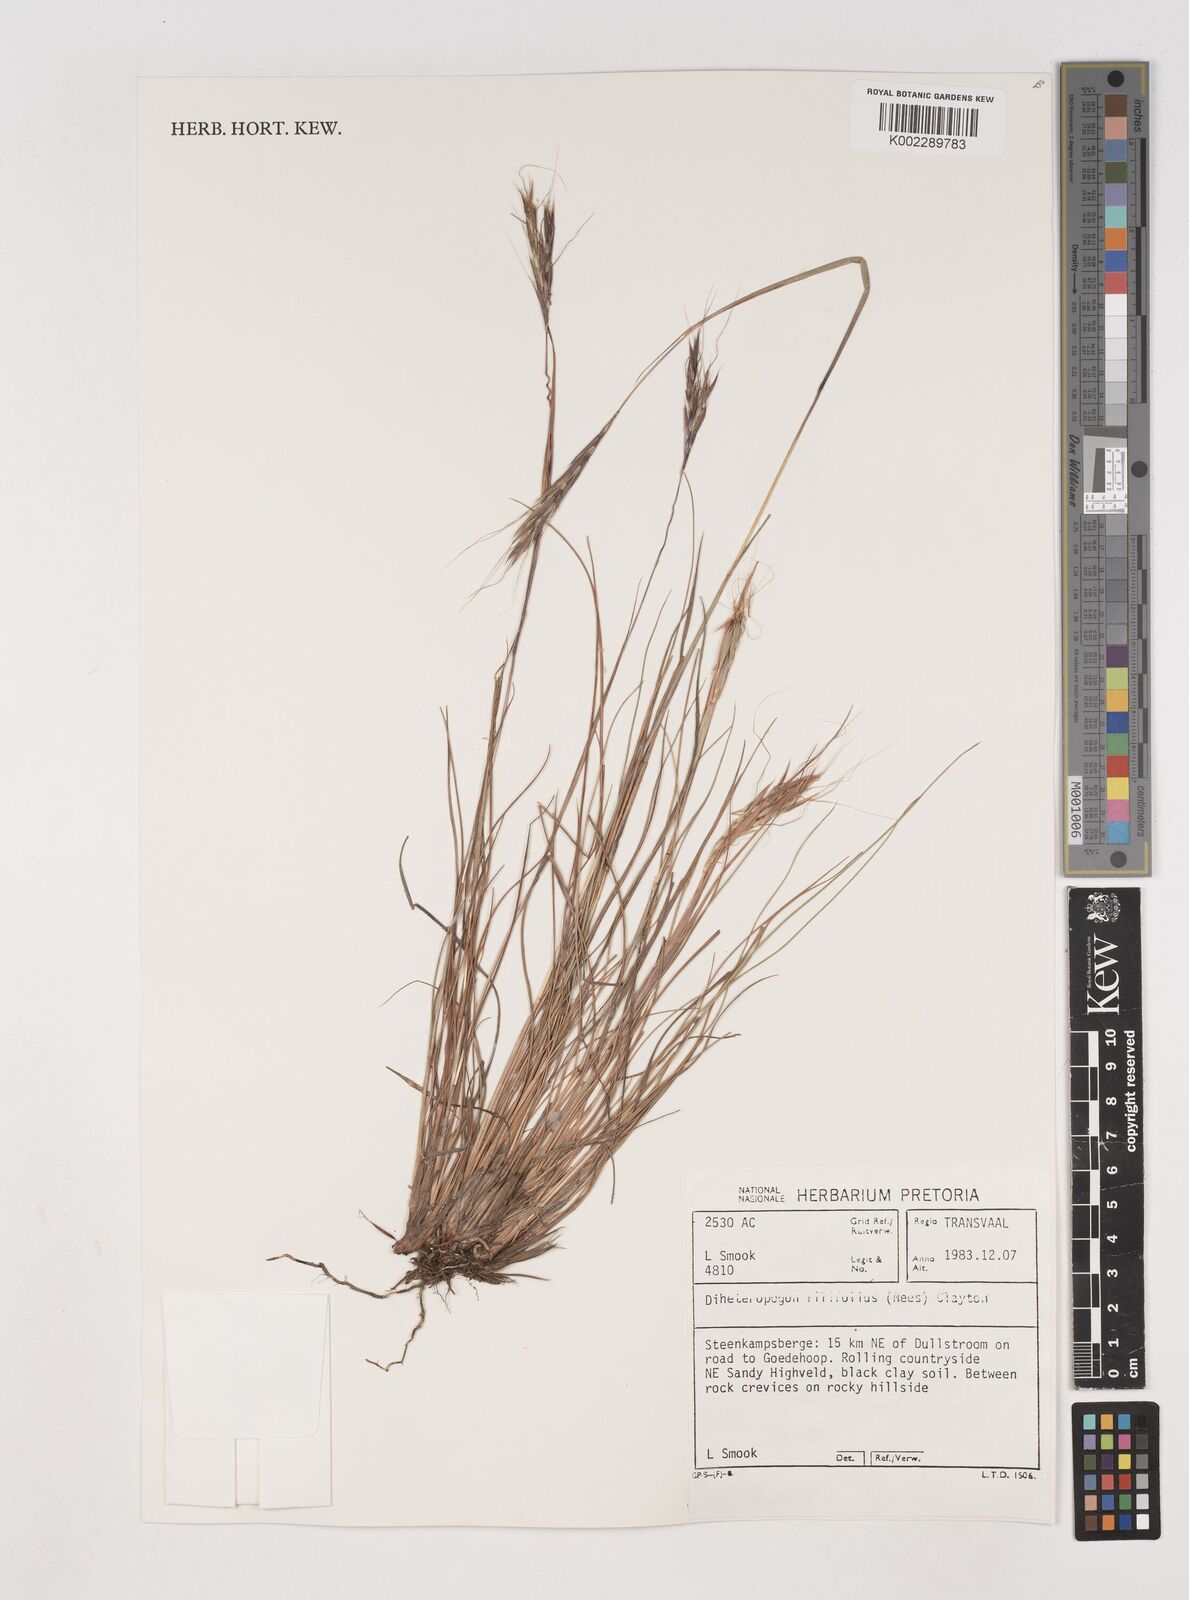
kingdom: Plantae
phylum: Tracheophyta
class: Liliopsida
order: Poales
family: Poaceae
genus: Diheteropogon
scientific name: Diheteropogon filifolius
